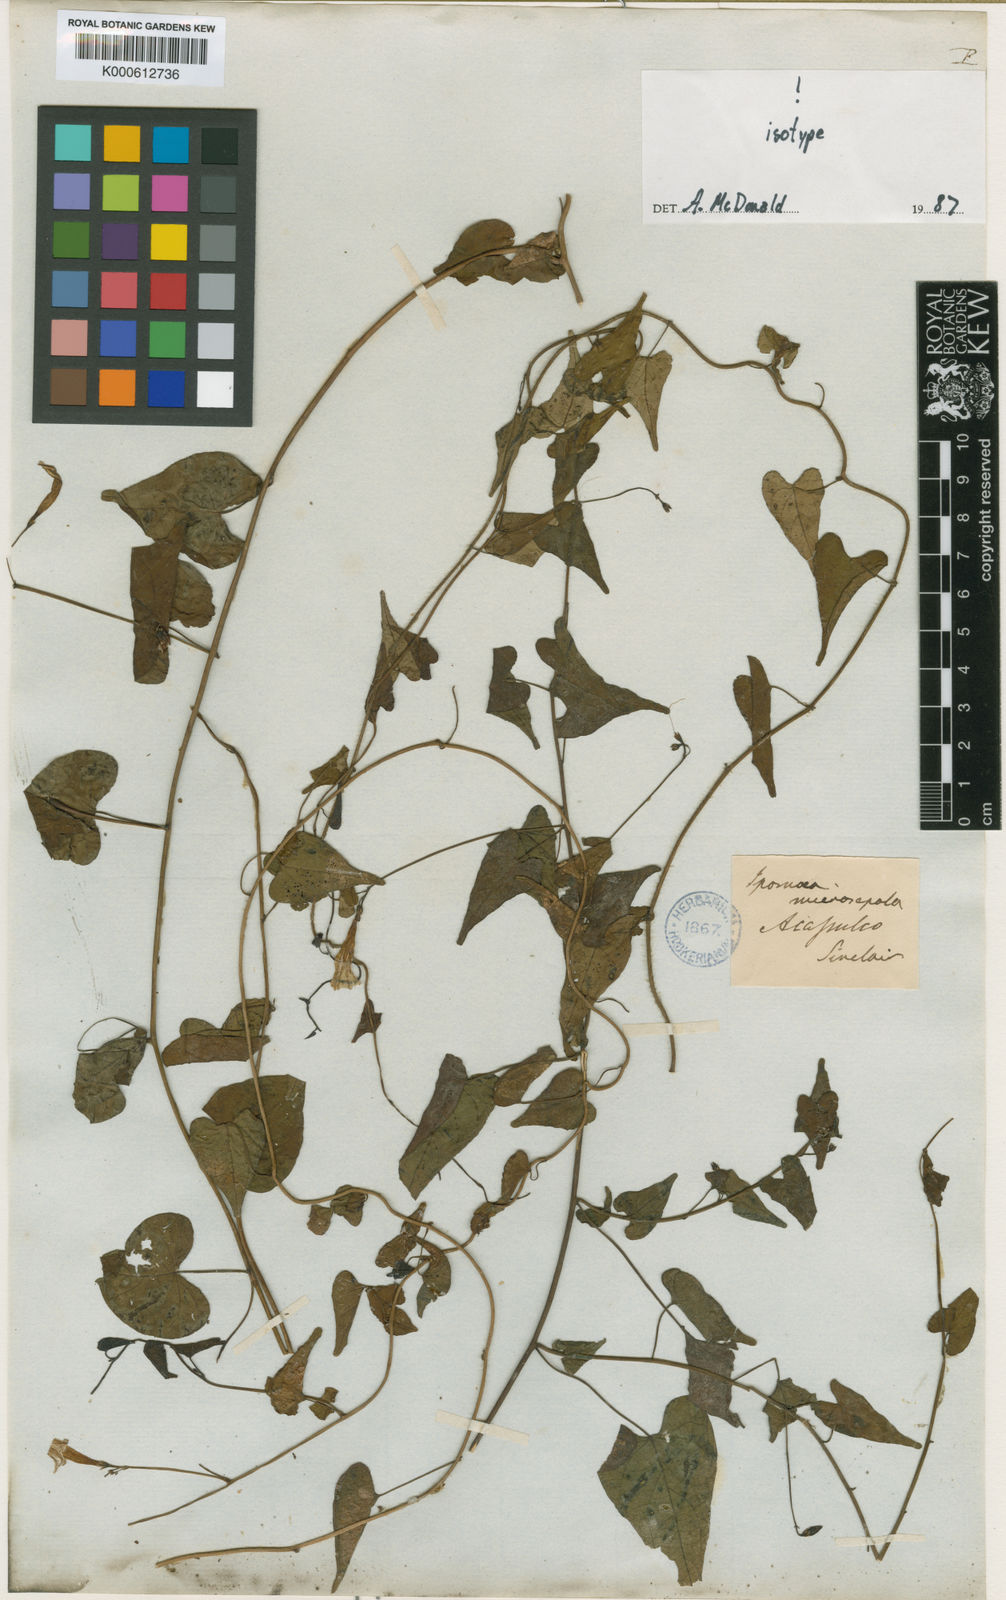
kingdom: Plantae
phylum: Tracheophyta
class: Magnoliopsida
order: Solanales
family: Convolvulaceae
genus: Ipomoea
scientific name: Ipomoea microsepala
